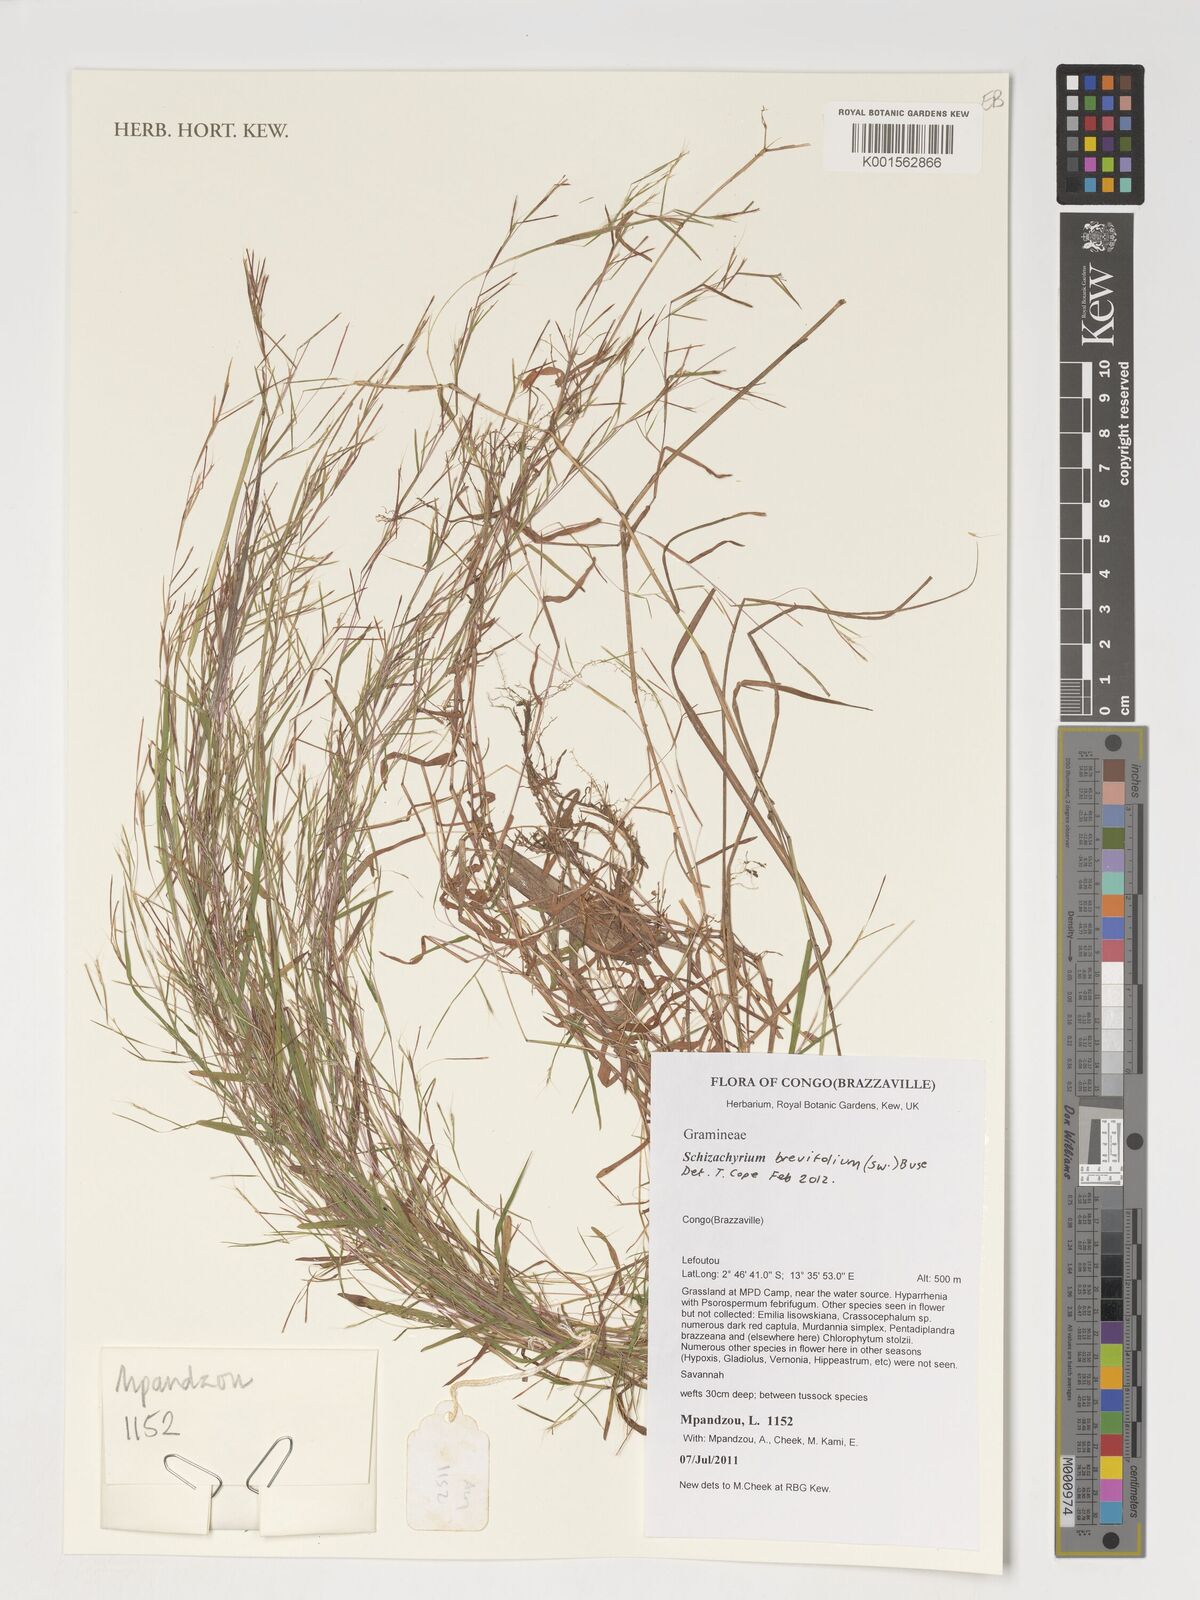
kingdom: Plantae
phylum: Tracheophyta
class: Liliopsida
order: Poales
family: Poaceae
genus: Schizachyrium
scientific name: Schizachyrium brevifolium
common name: Serillo dulce
